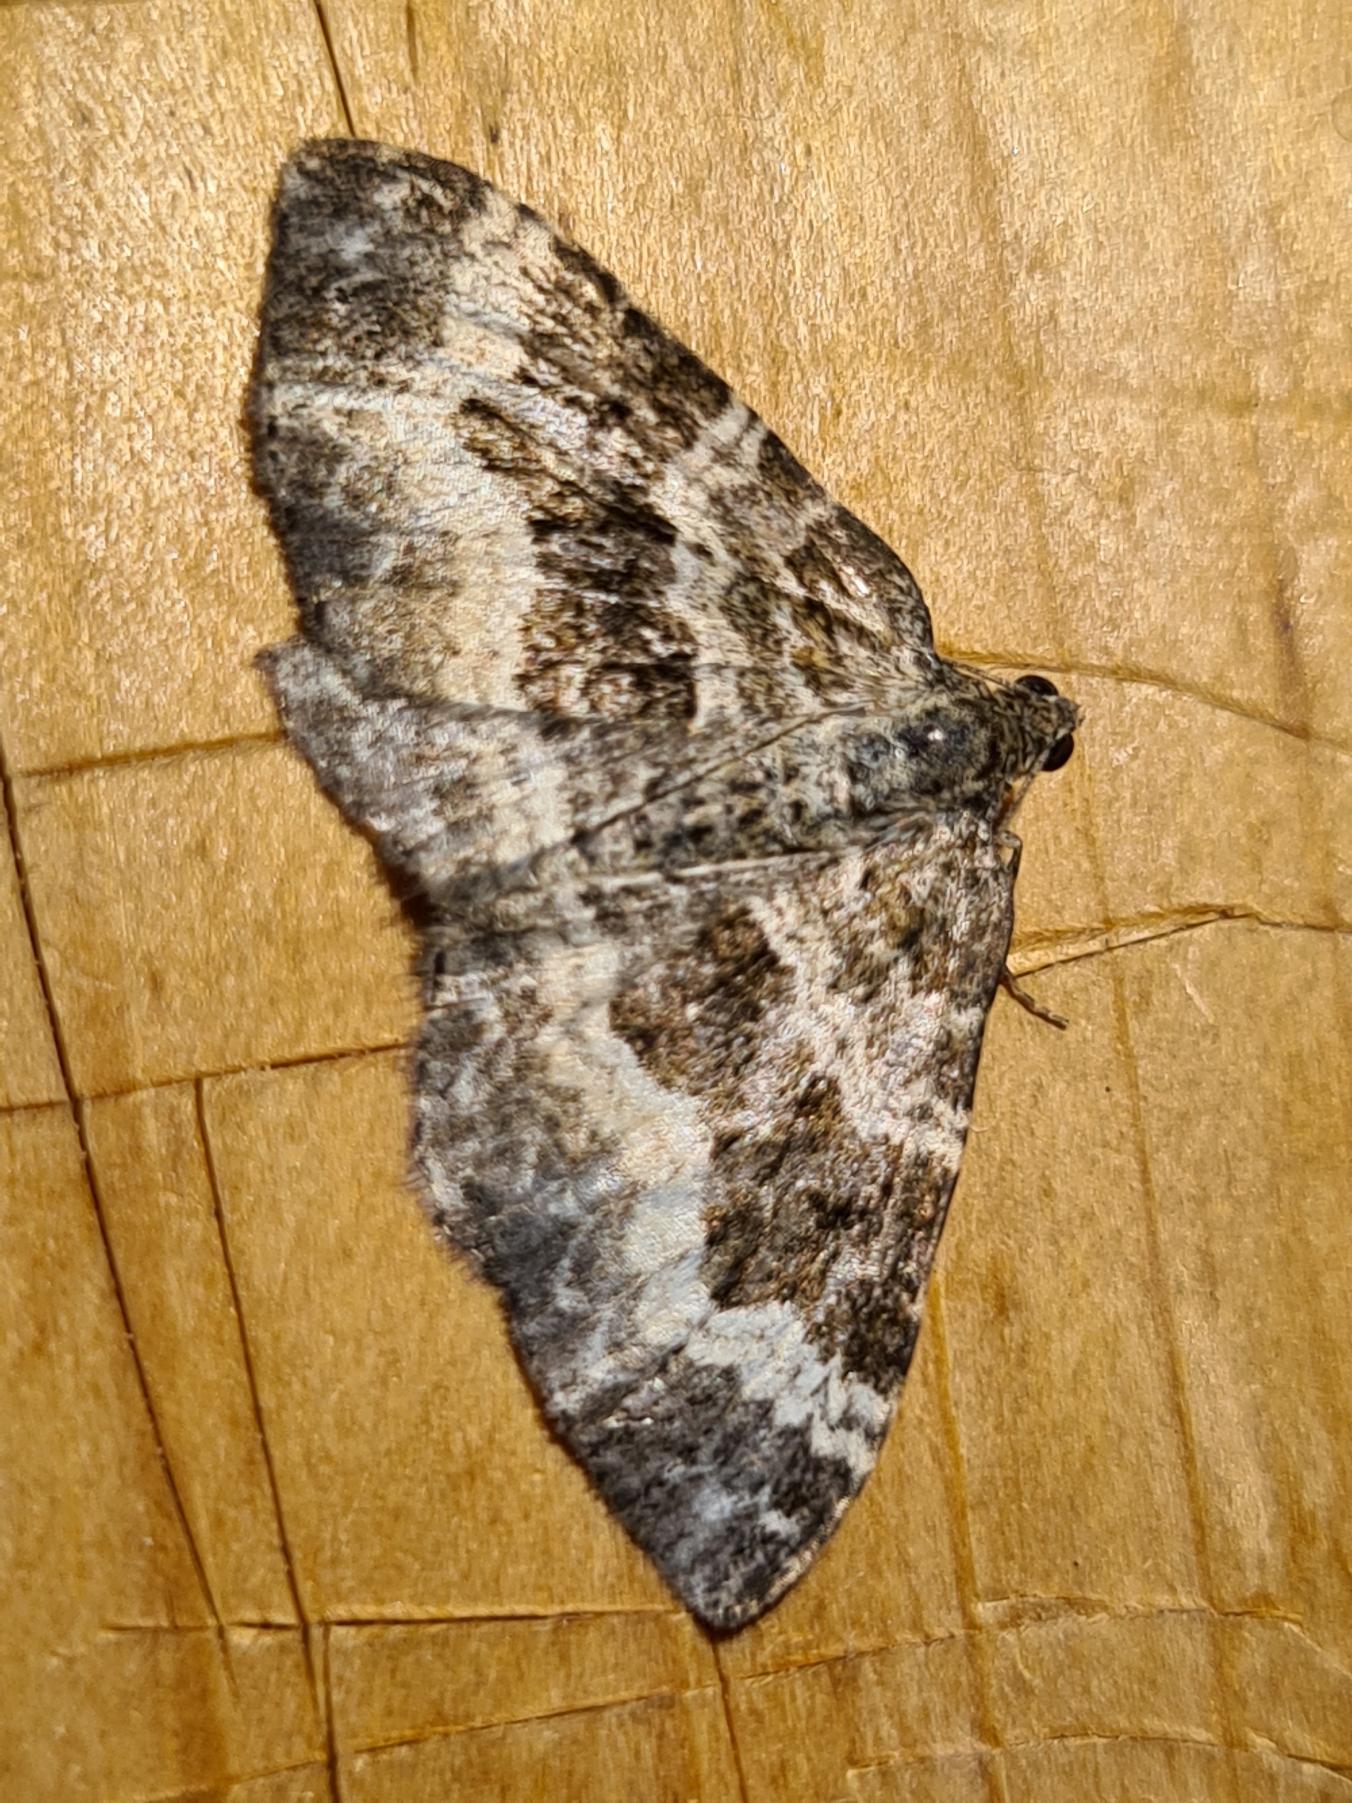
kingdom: Animalia
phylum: Arthropoda
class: Insecta
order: Lepidoptera
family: Geometridae
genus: Epirrhoe
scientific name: Epirrhoe alternata
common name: Almindelig bladmåler
